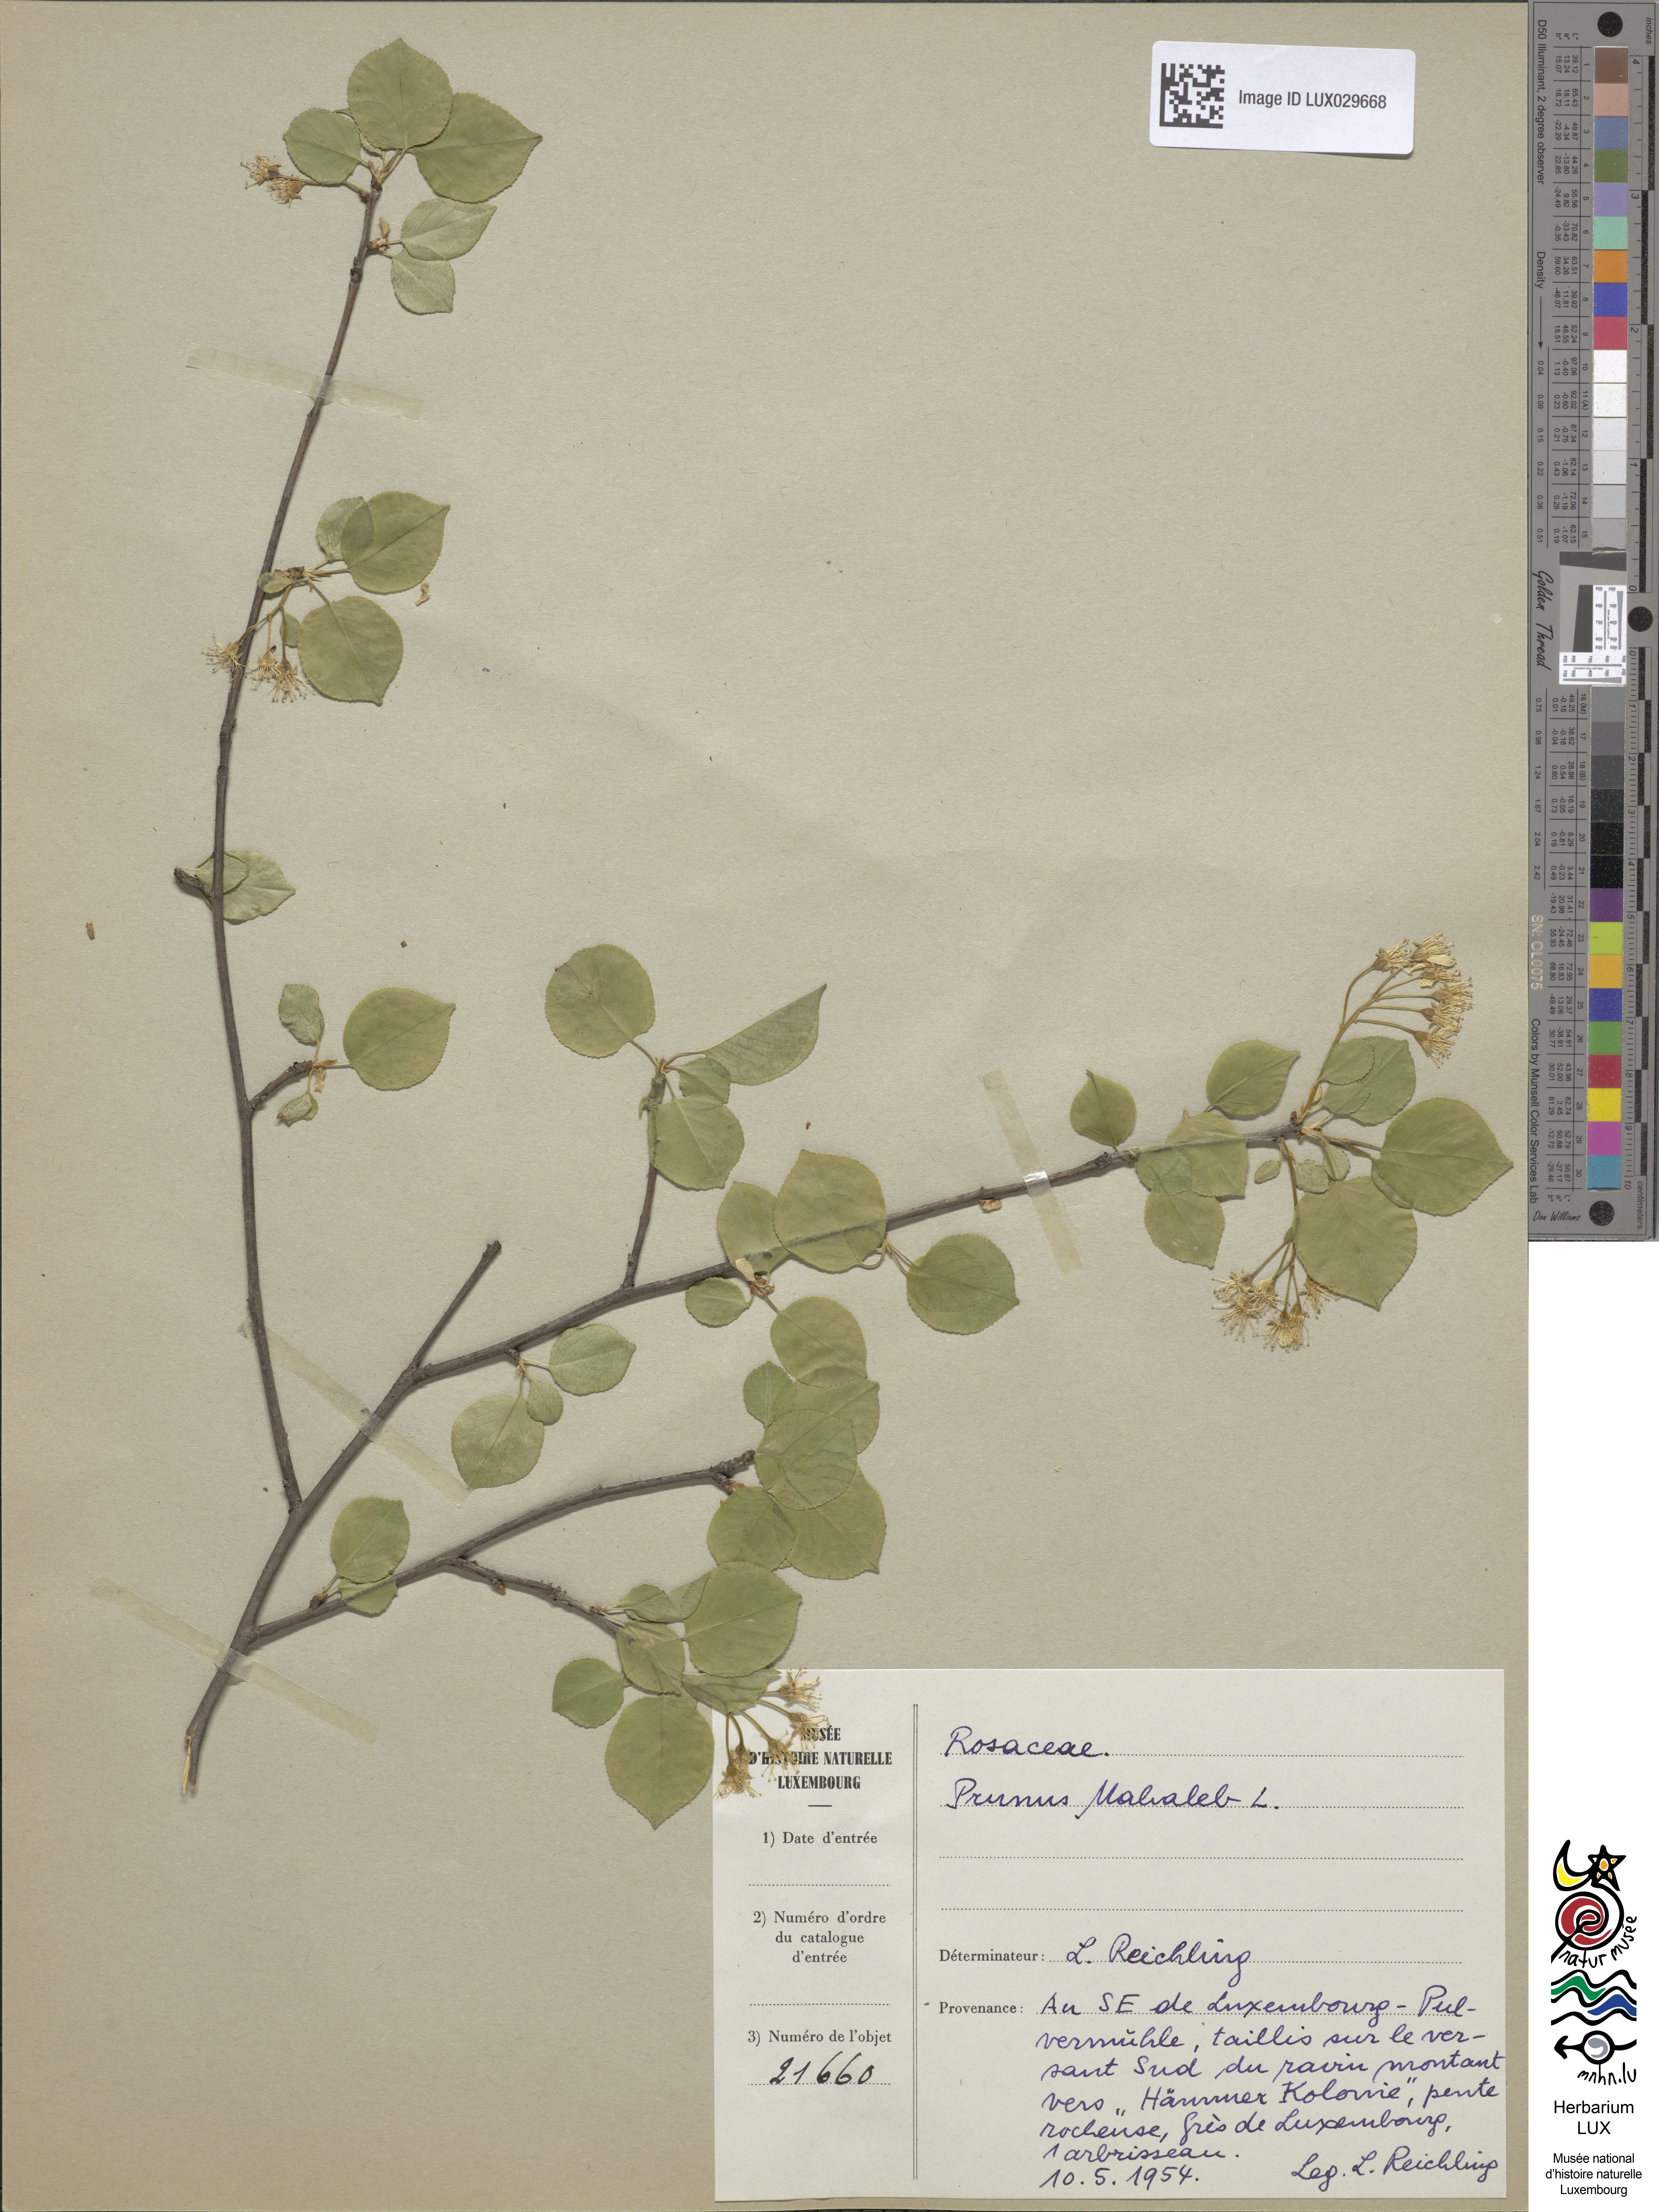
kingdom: Plantae
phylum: Tracheophyta
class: Magnoliopsida
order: Rosales
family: Rosaceae
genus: Prunus
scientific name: Prunus mahaleb
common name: Mahaleb cherry
